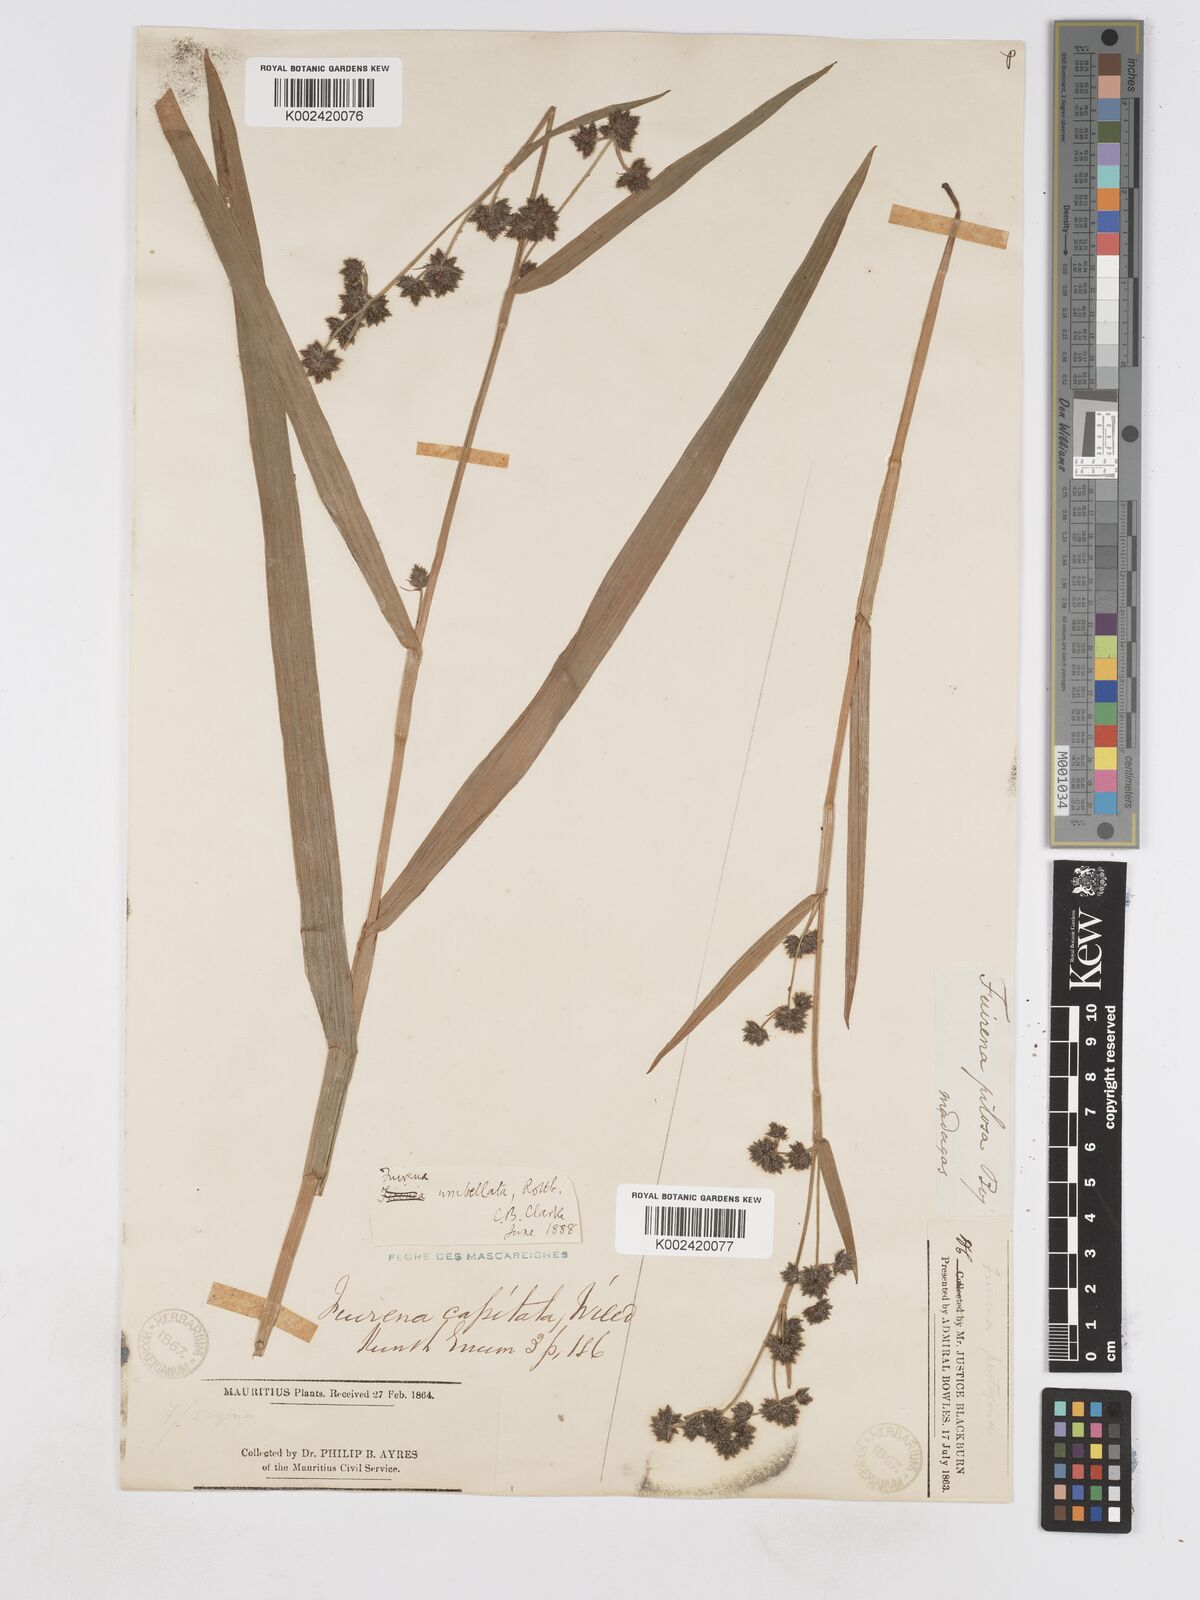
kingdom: Plantae
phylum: Tracheophyta
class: Liliopsida
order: Poales
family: Cyperaceae
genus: Fuirena
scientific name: Fuirena umbellata
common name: Yefen
